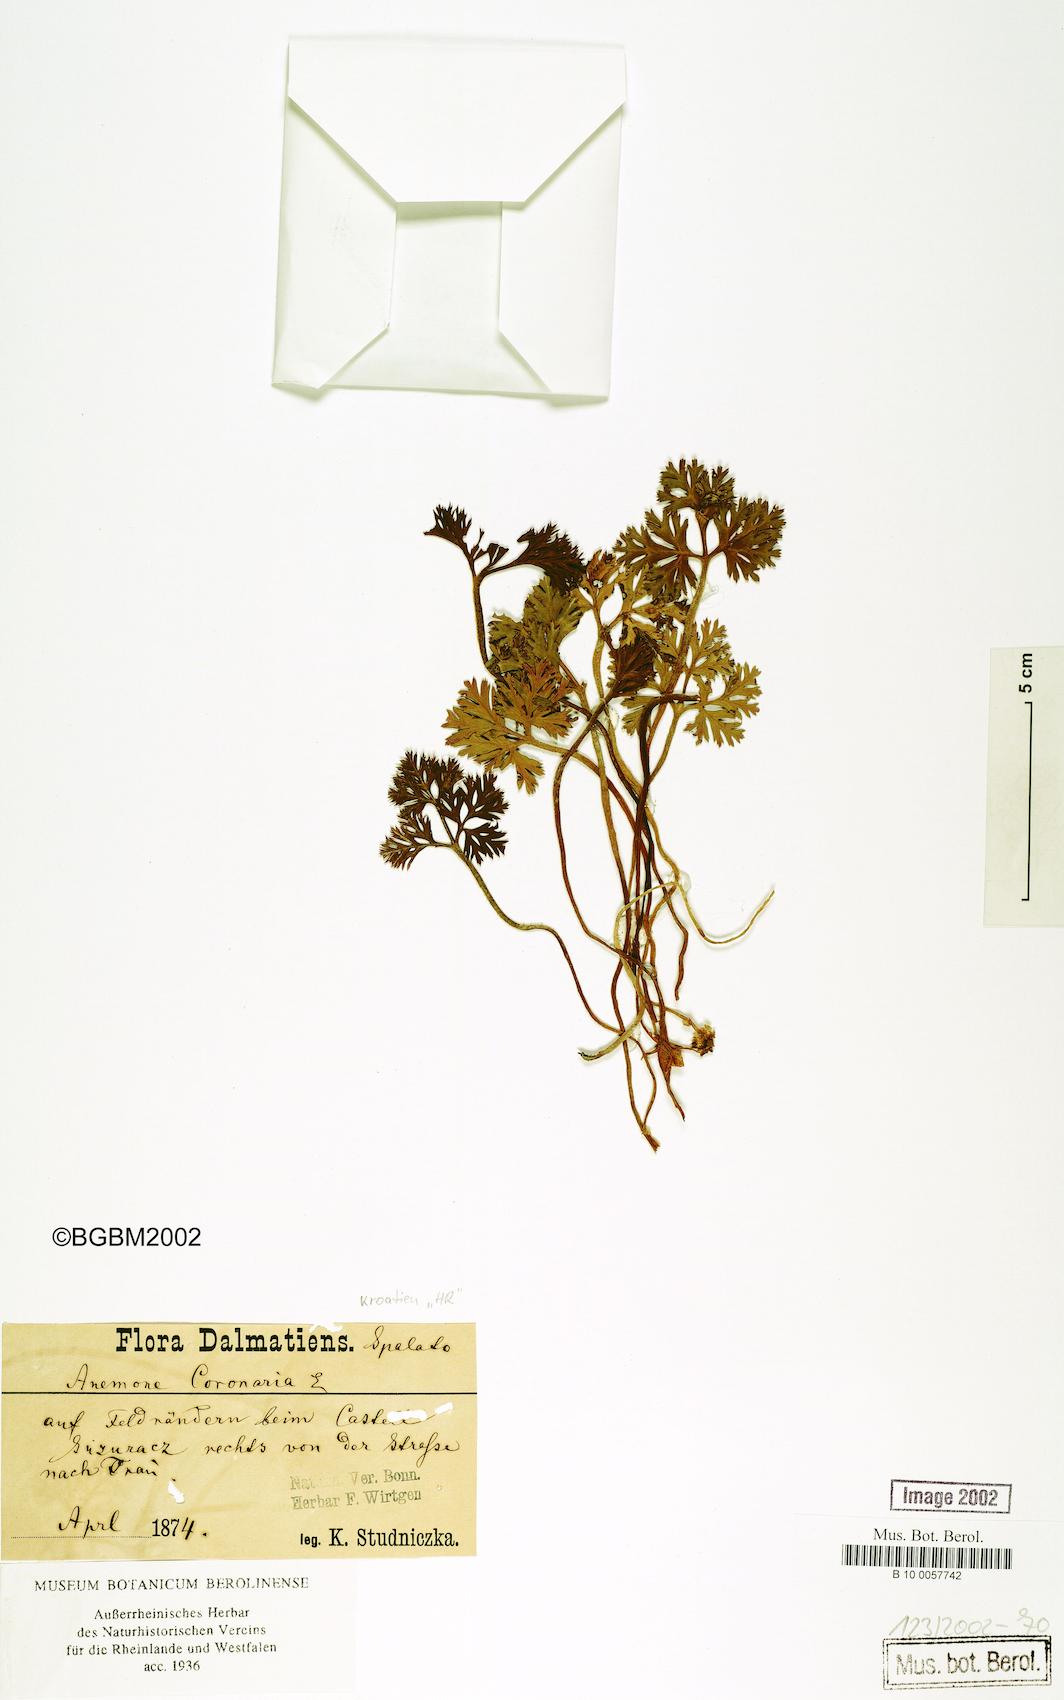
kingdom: Plantae
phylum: Tracheophyta
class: Magnoliopsida
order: Ranunculales
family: Ranunculaceae
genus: Anemone
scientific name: Anemone coronaria
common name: Poppy anemone
